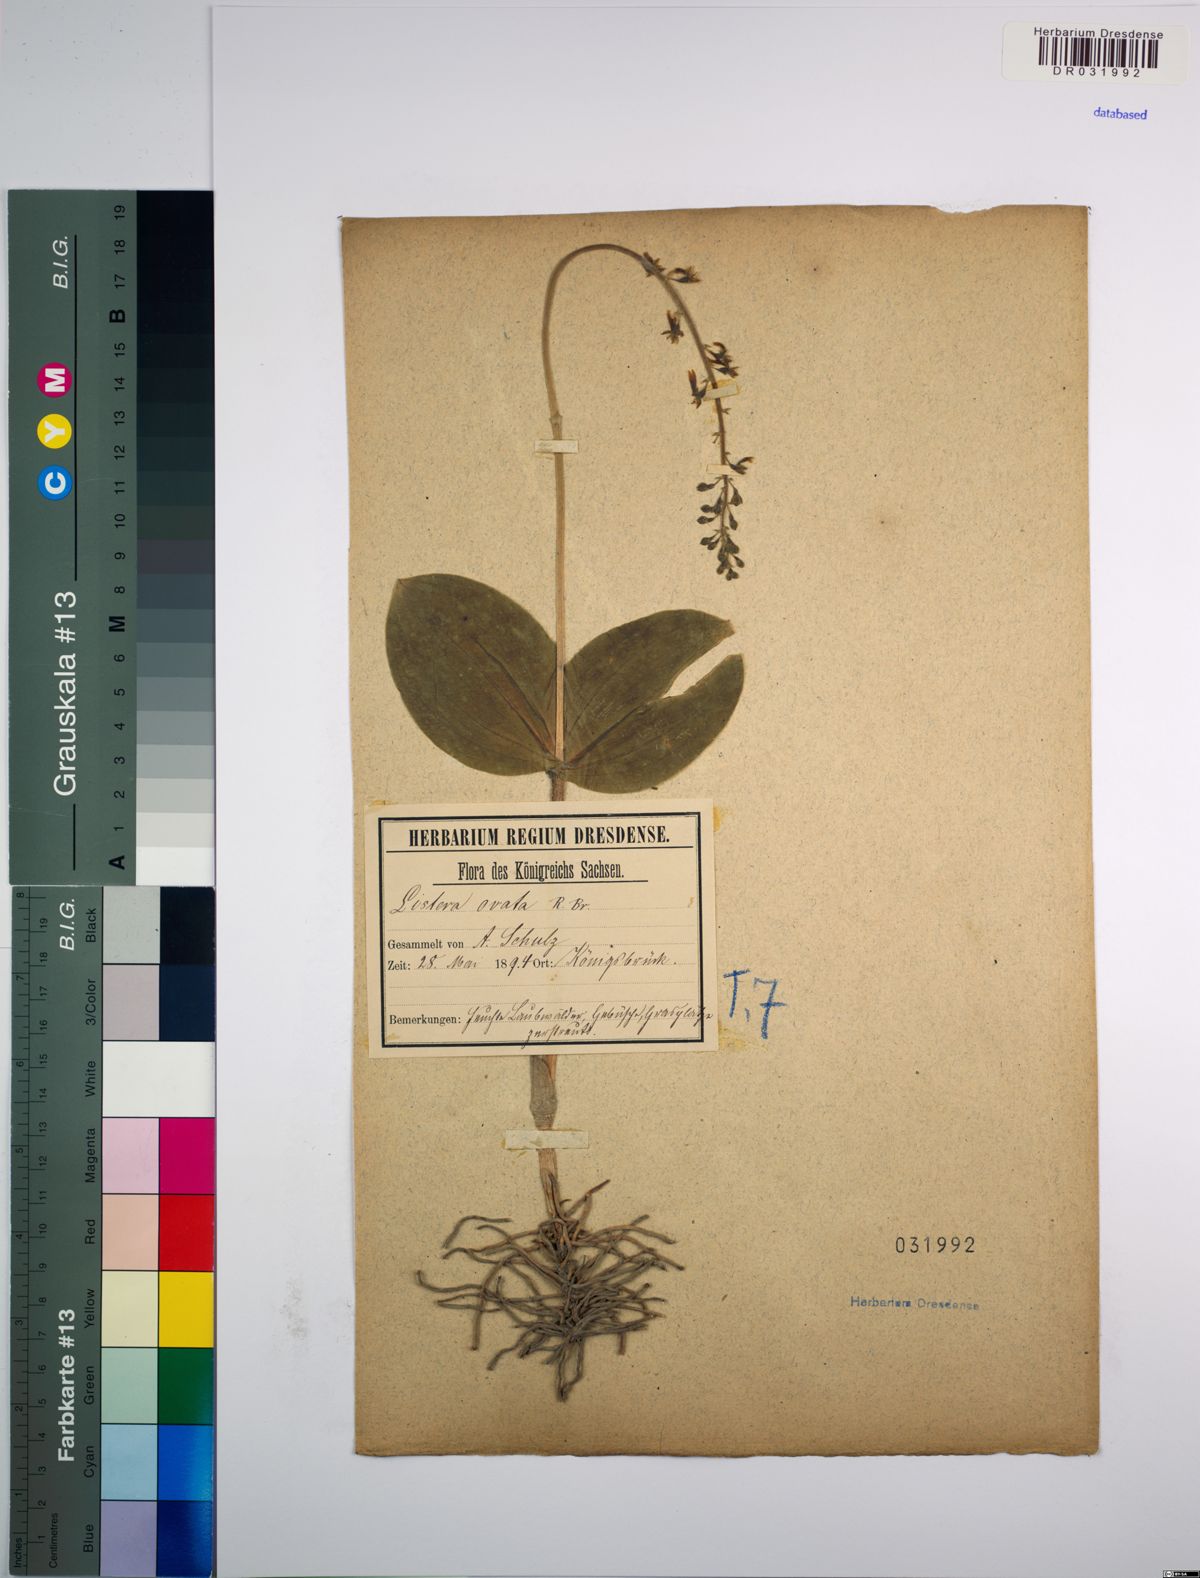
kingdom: Plantae
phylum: Tracheophyta
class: Liliopsida
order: Asparagales
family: Orchidaceae
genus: Neottia
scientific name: Neottia ovata
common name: Common twayblade
